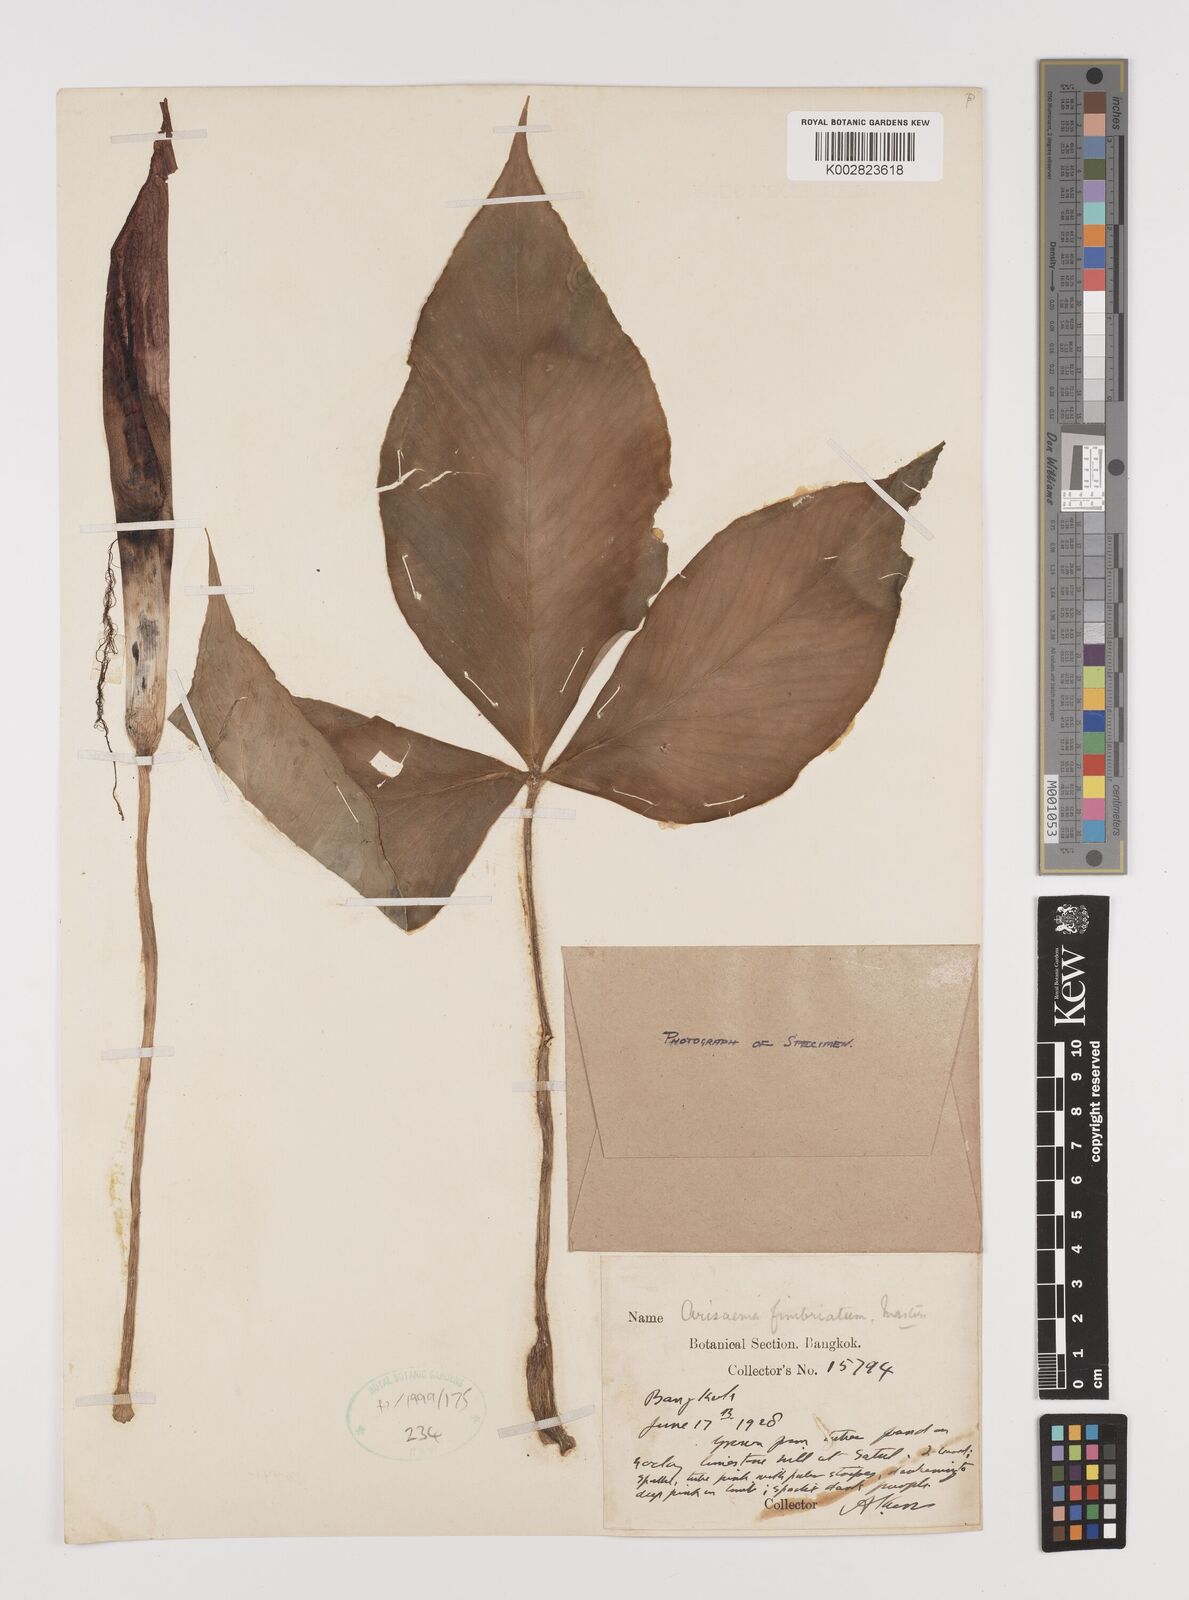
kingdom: Plantae
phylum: Tracheophyta
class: Liliopsida
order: Alismatales
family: Araceae
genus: Arisaema
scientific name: Arisaema fimbriatum
